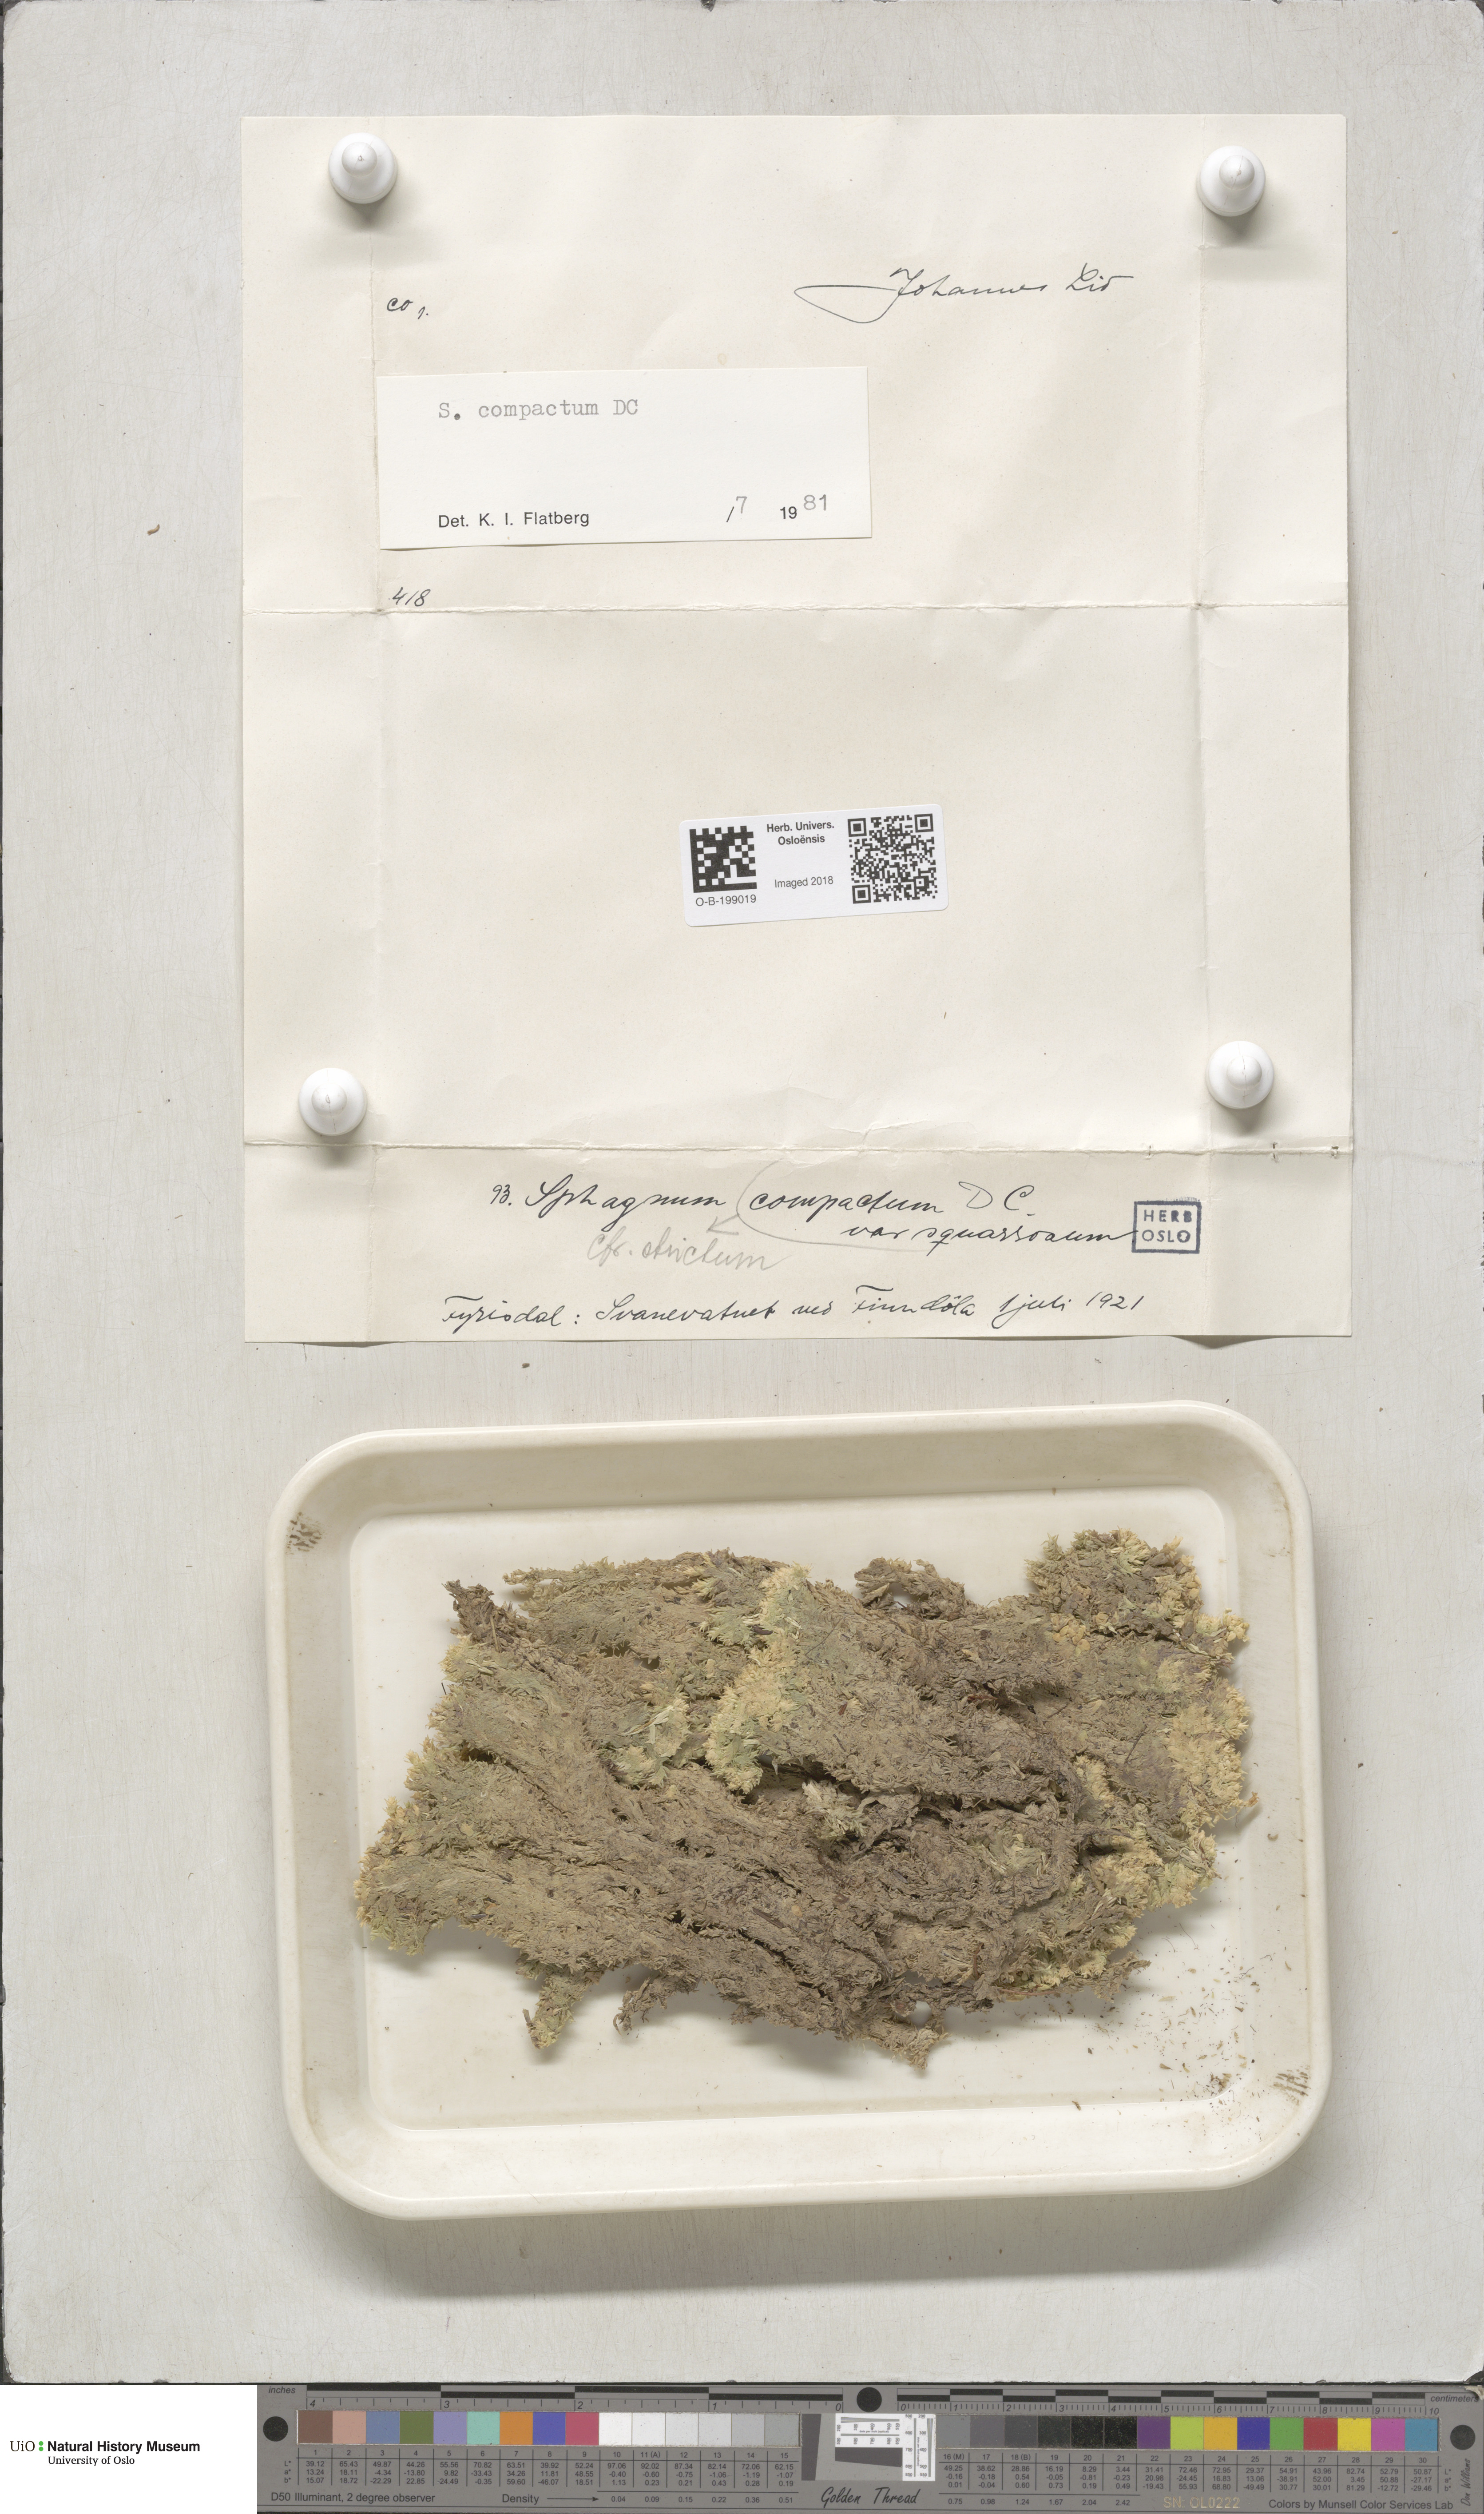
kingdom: Plantae
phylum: Bryophyta
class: Sphagnopsida
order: Sphagnales
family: Sphagnaceae
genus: Sphagnum
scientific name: Sphagnum compactum
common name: Compact peat moss
